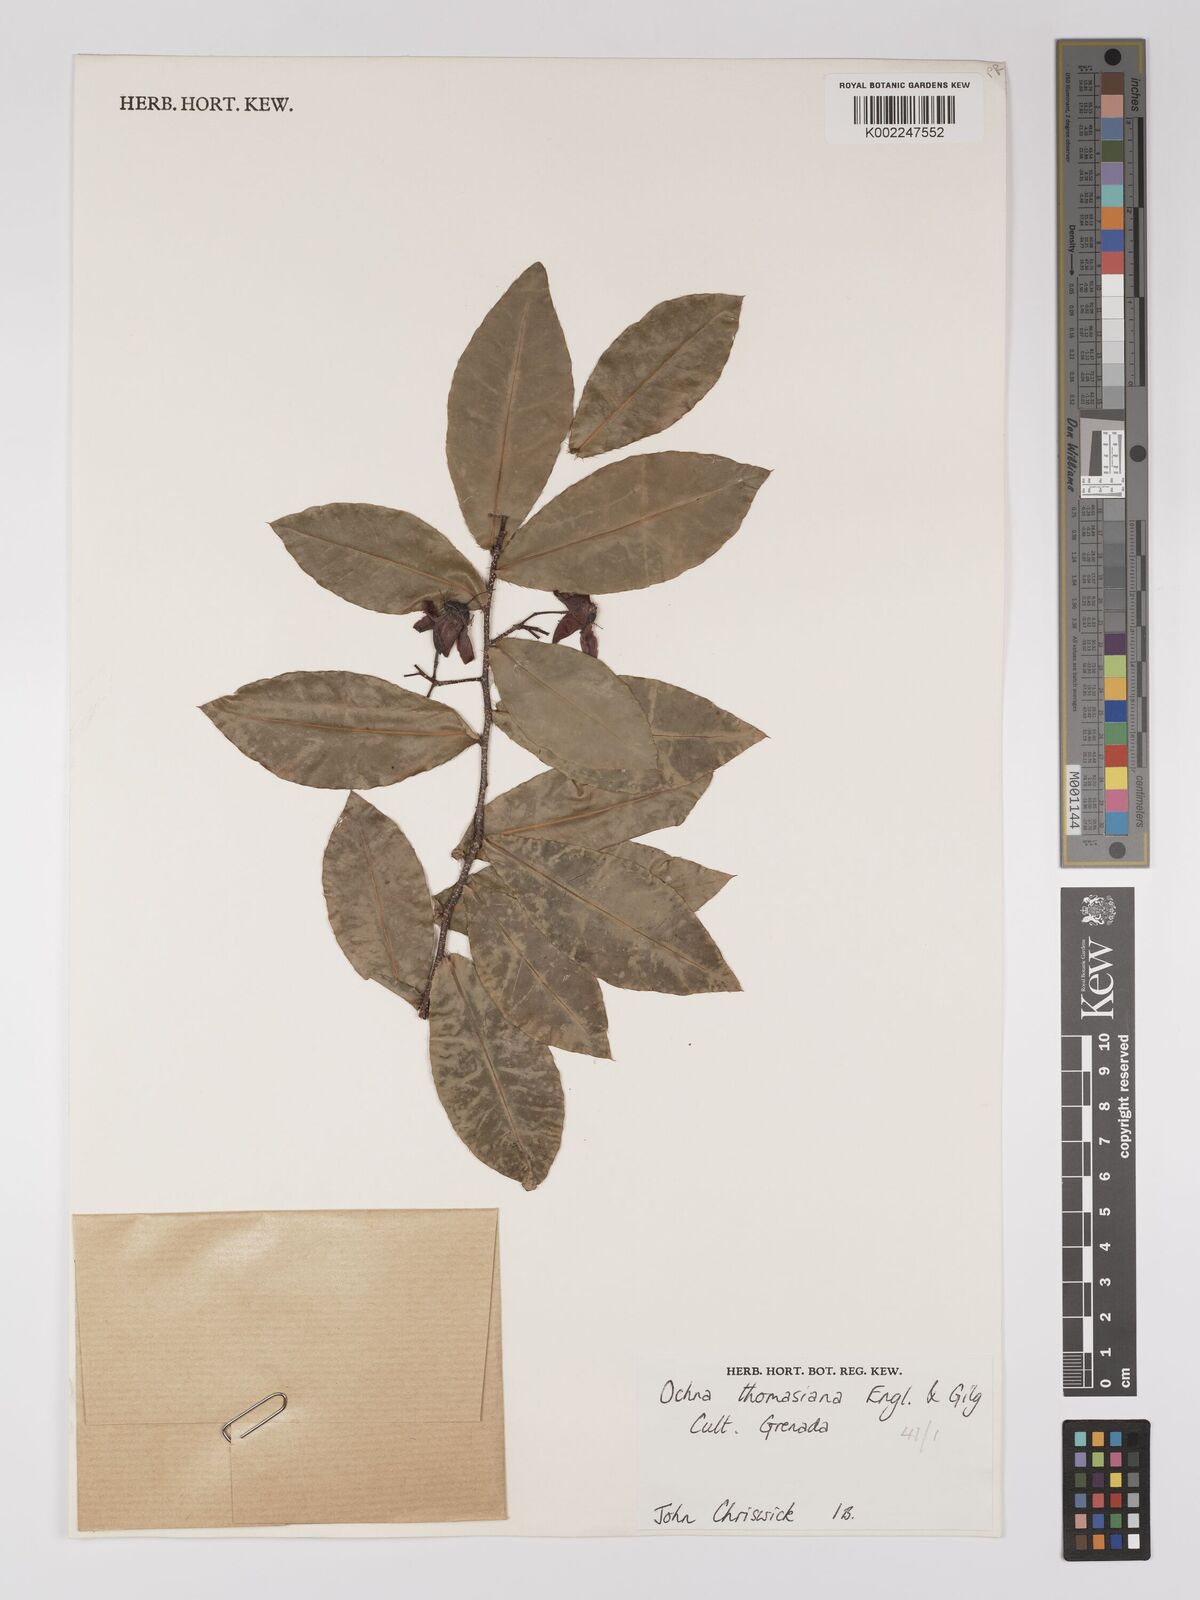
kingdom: Plantae
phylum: Tracheophyta
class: Magnoliopsida
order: Malpighiales
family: Ochnaceae
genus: Ochna
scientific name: Ochna thomasiana
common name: Thomas' bird's-eye bush
